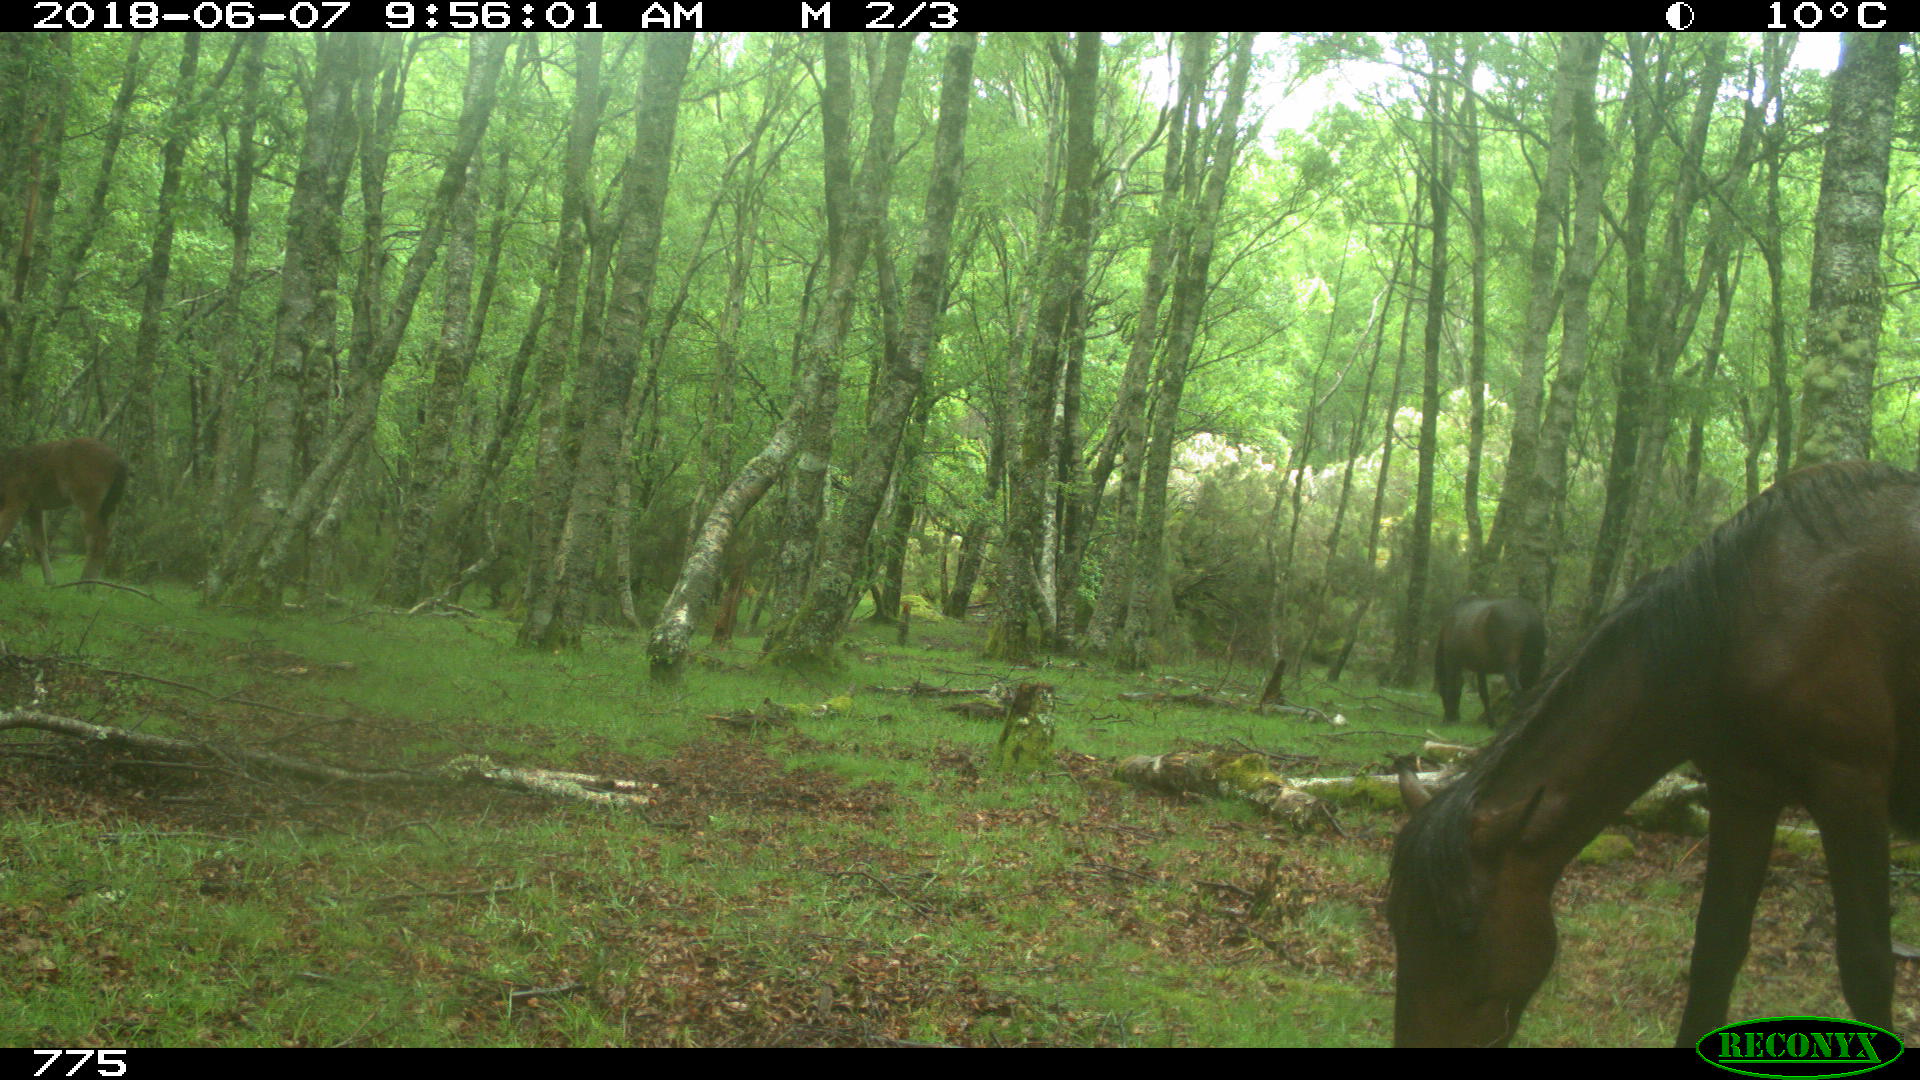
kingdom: Animalia
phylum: Chordata
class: Mammalia
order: Perissodactyla
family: Equidae
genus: Equus
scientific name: Equus caballus
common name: Horse
